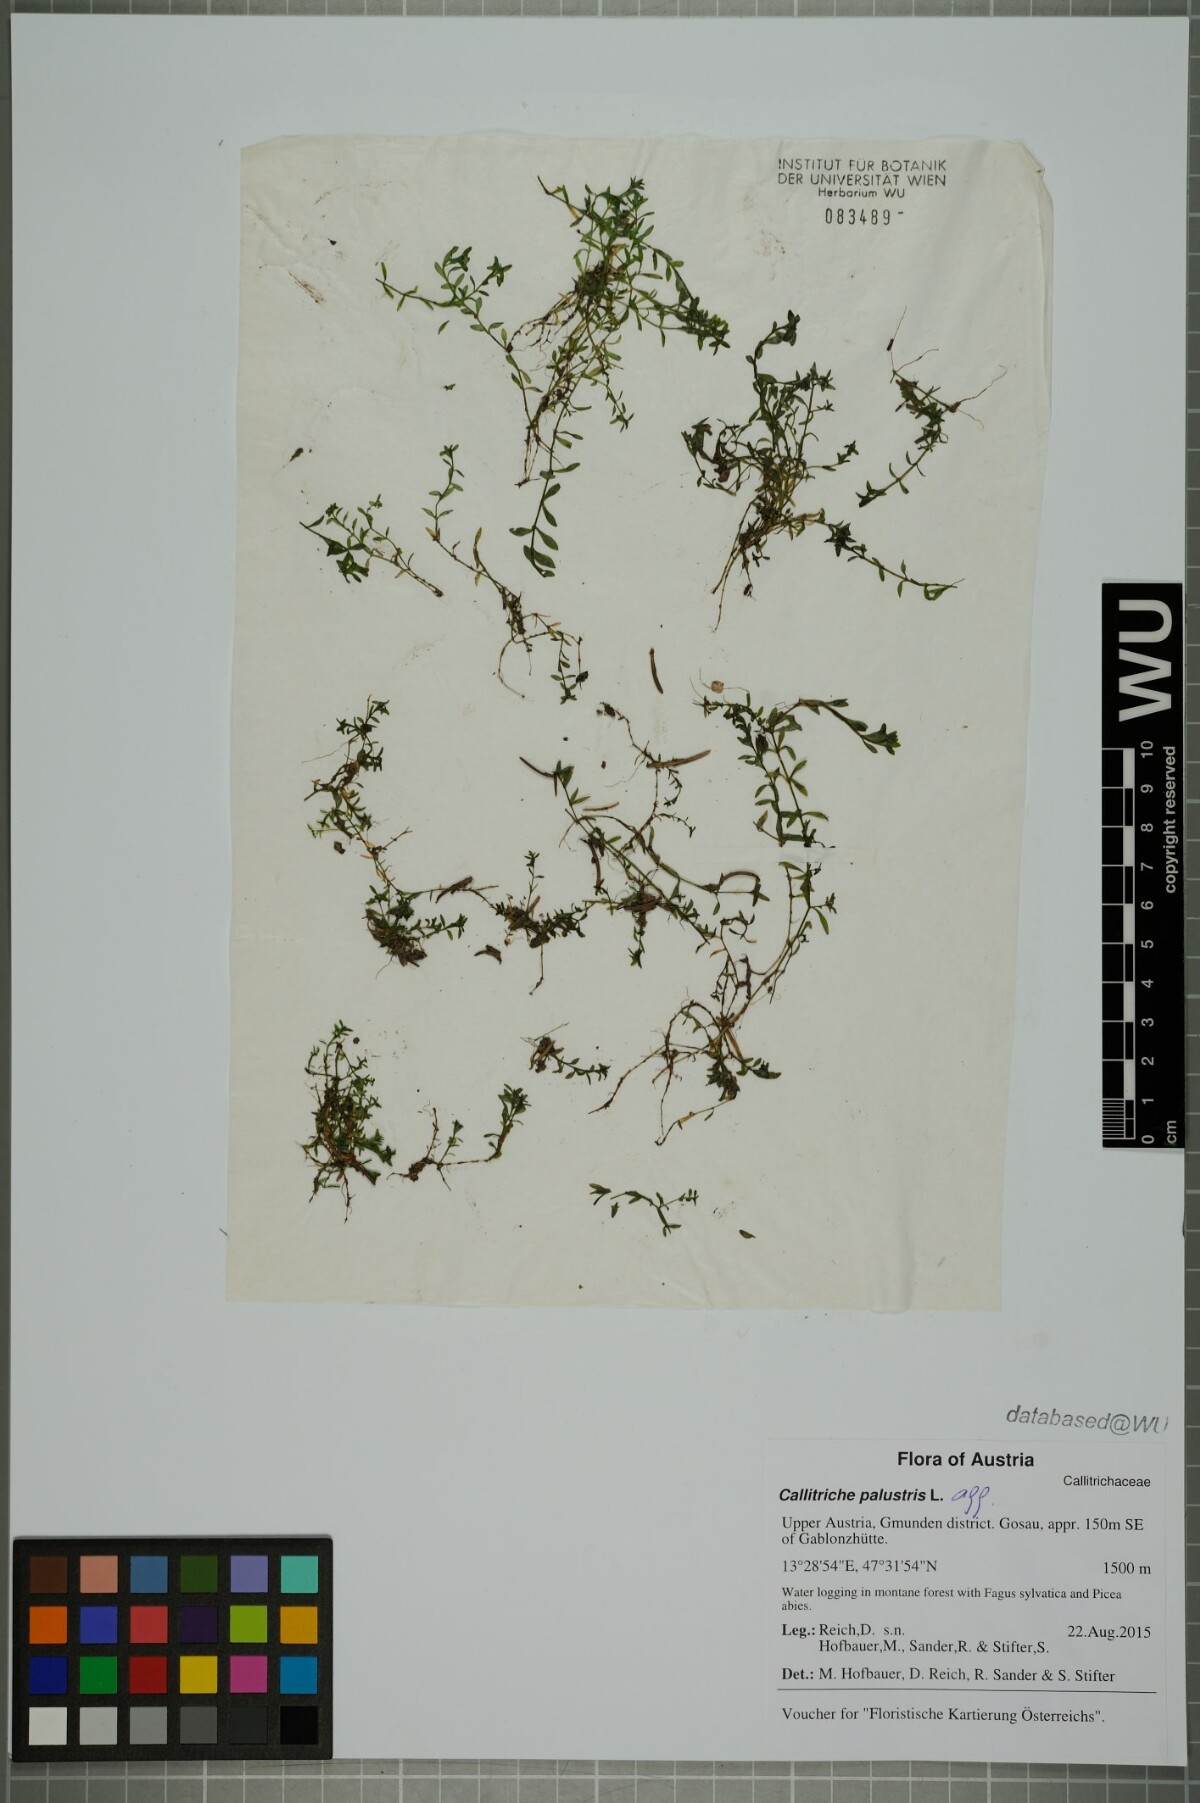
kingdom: Plantae
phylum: Tracheophyta
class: Magnoliopsida
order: Lamiales
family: Plantaginaceae
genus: Callitriche
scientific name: Callitriche palustris
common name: Spring water-starwort
